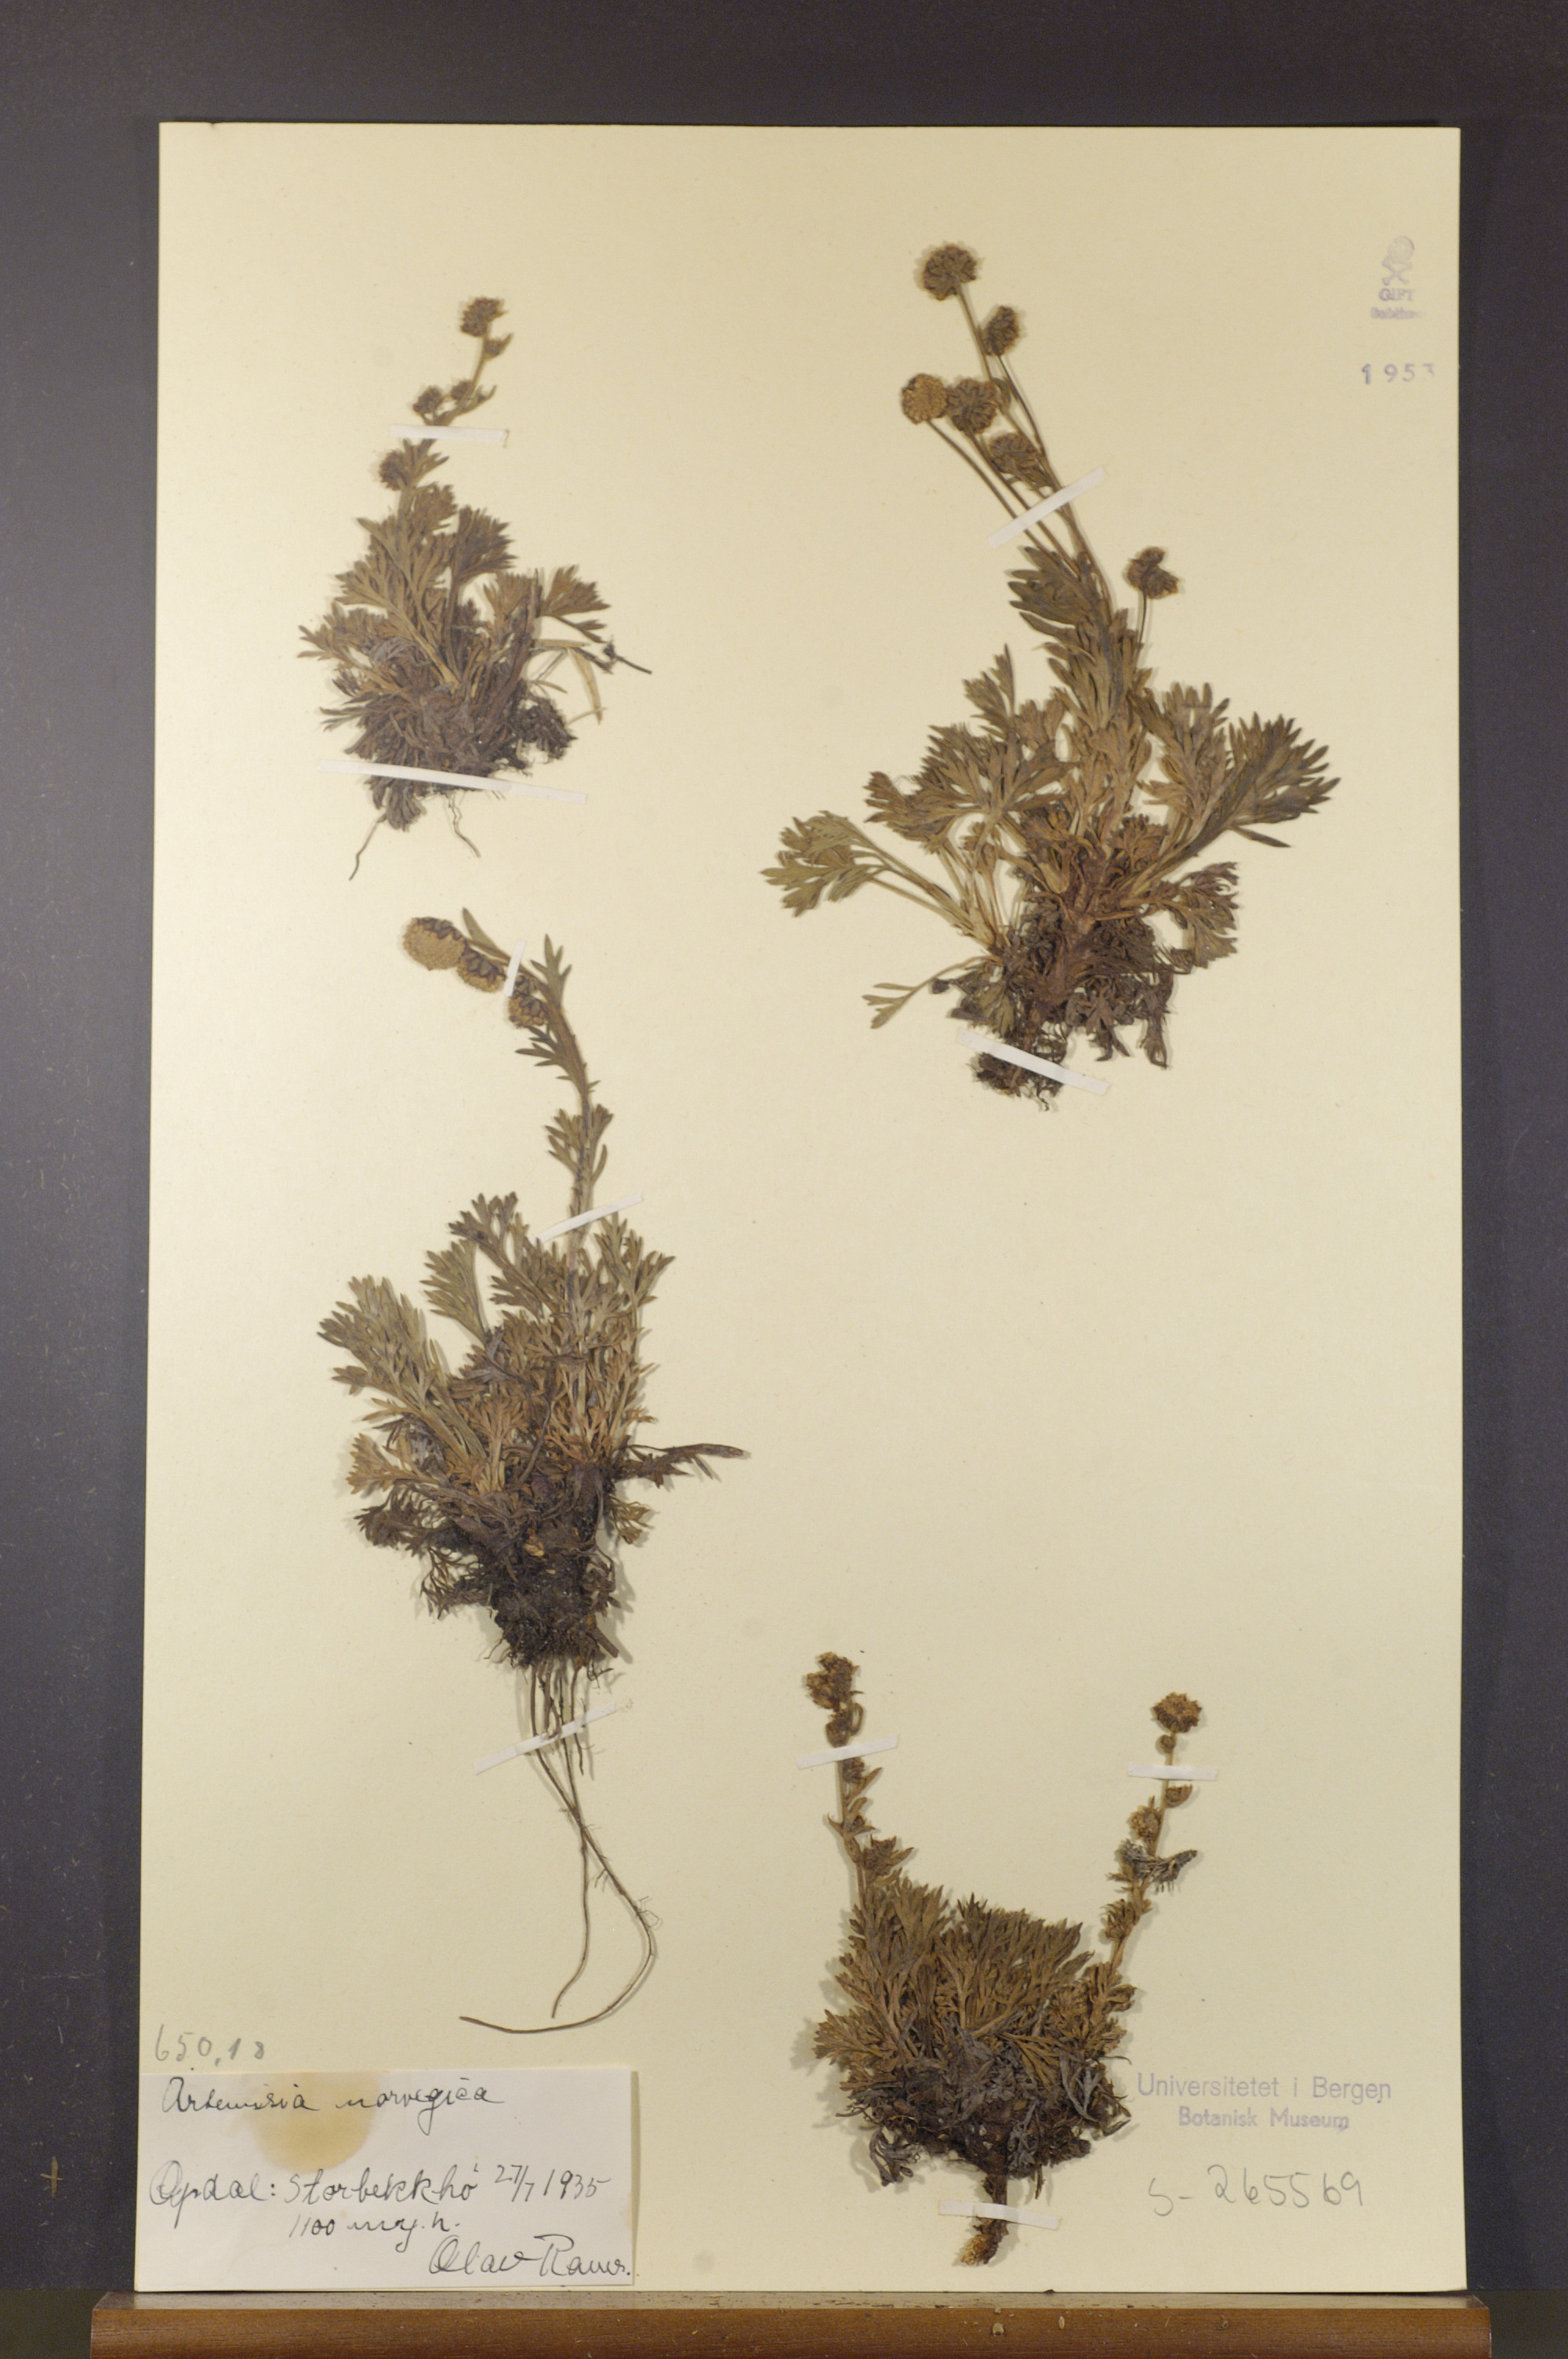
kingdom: Plantae
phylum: Tracheophyta
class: Magnoliopsida
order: Asterales
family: Asteraceae
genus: Artemisia
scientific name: Artemisia norvegica
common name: Norwegian mugwort
